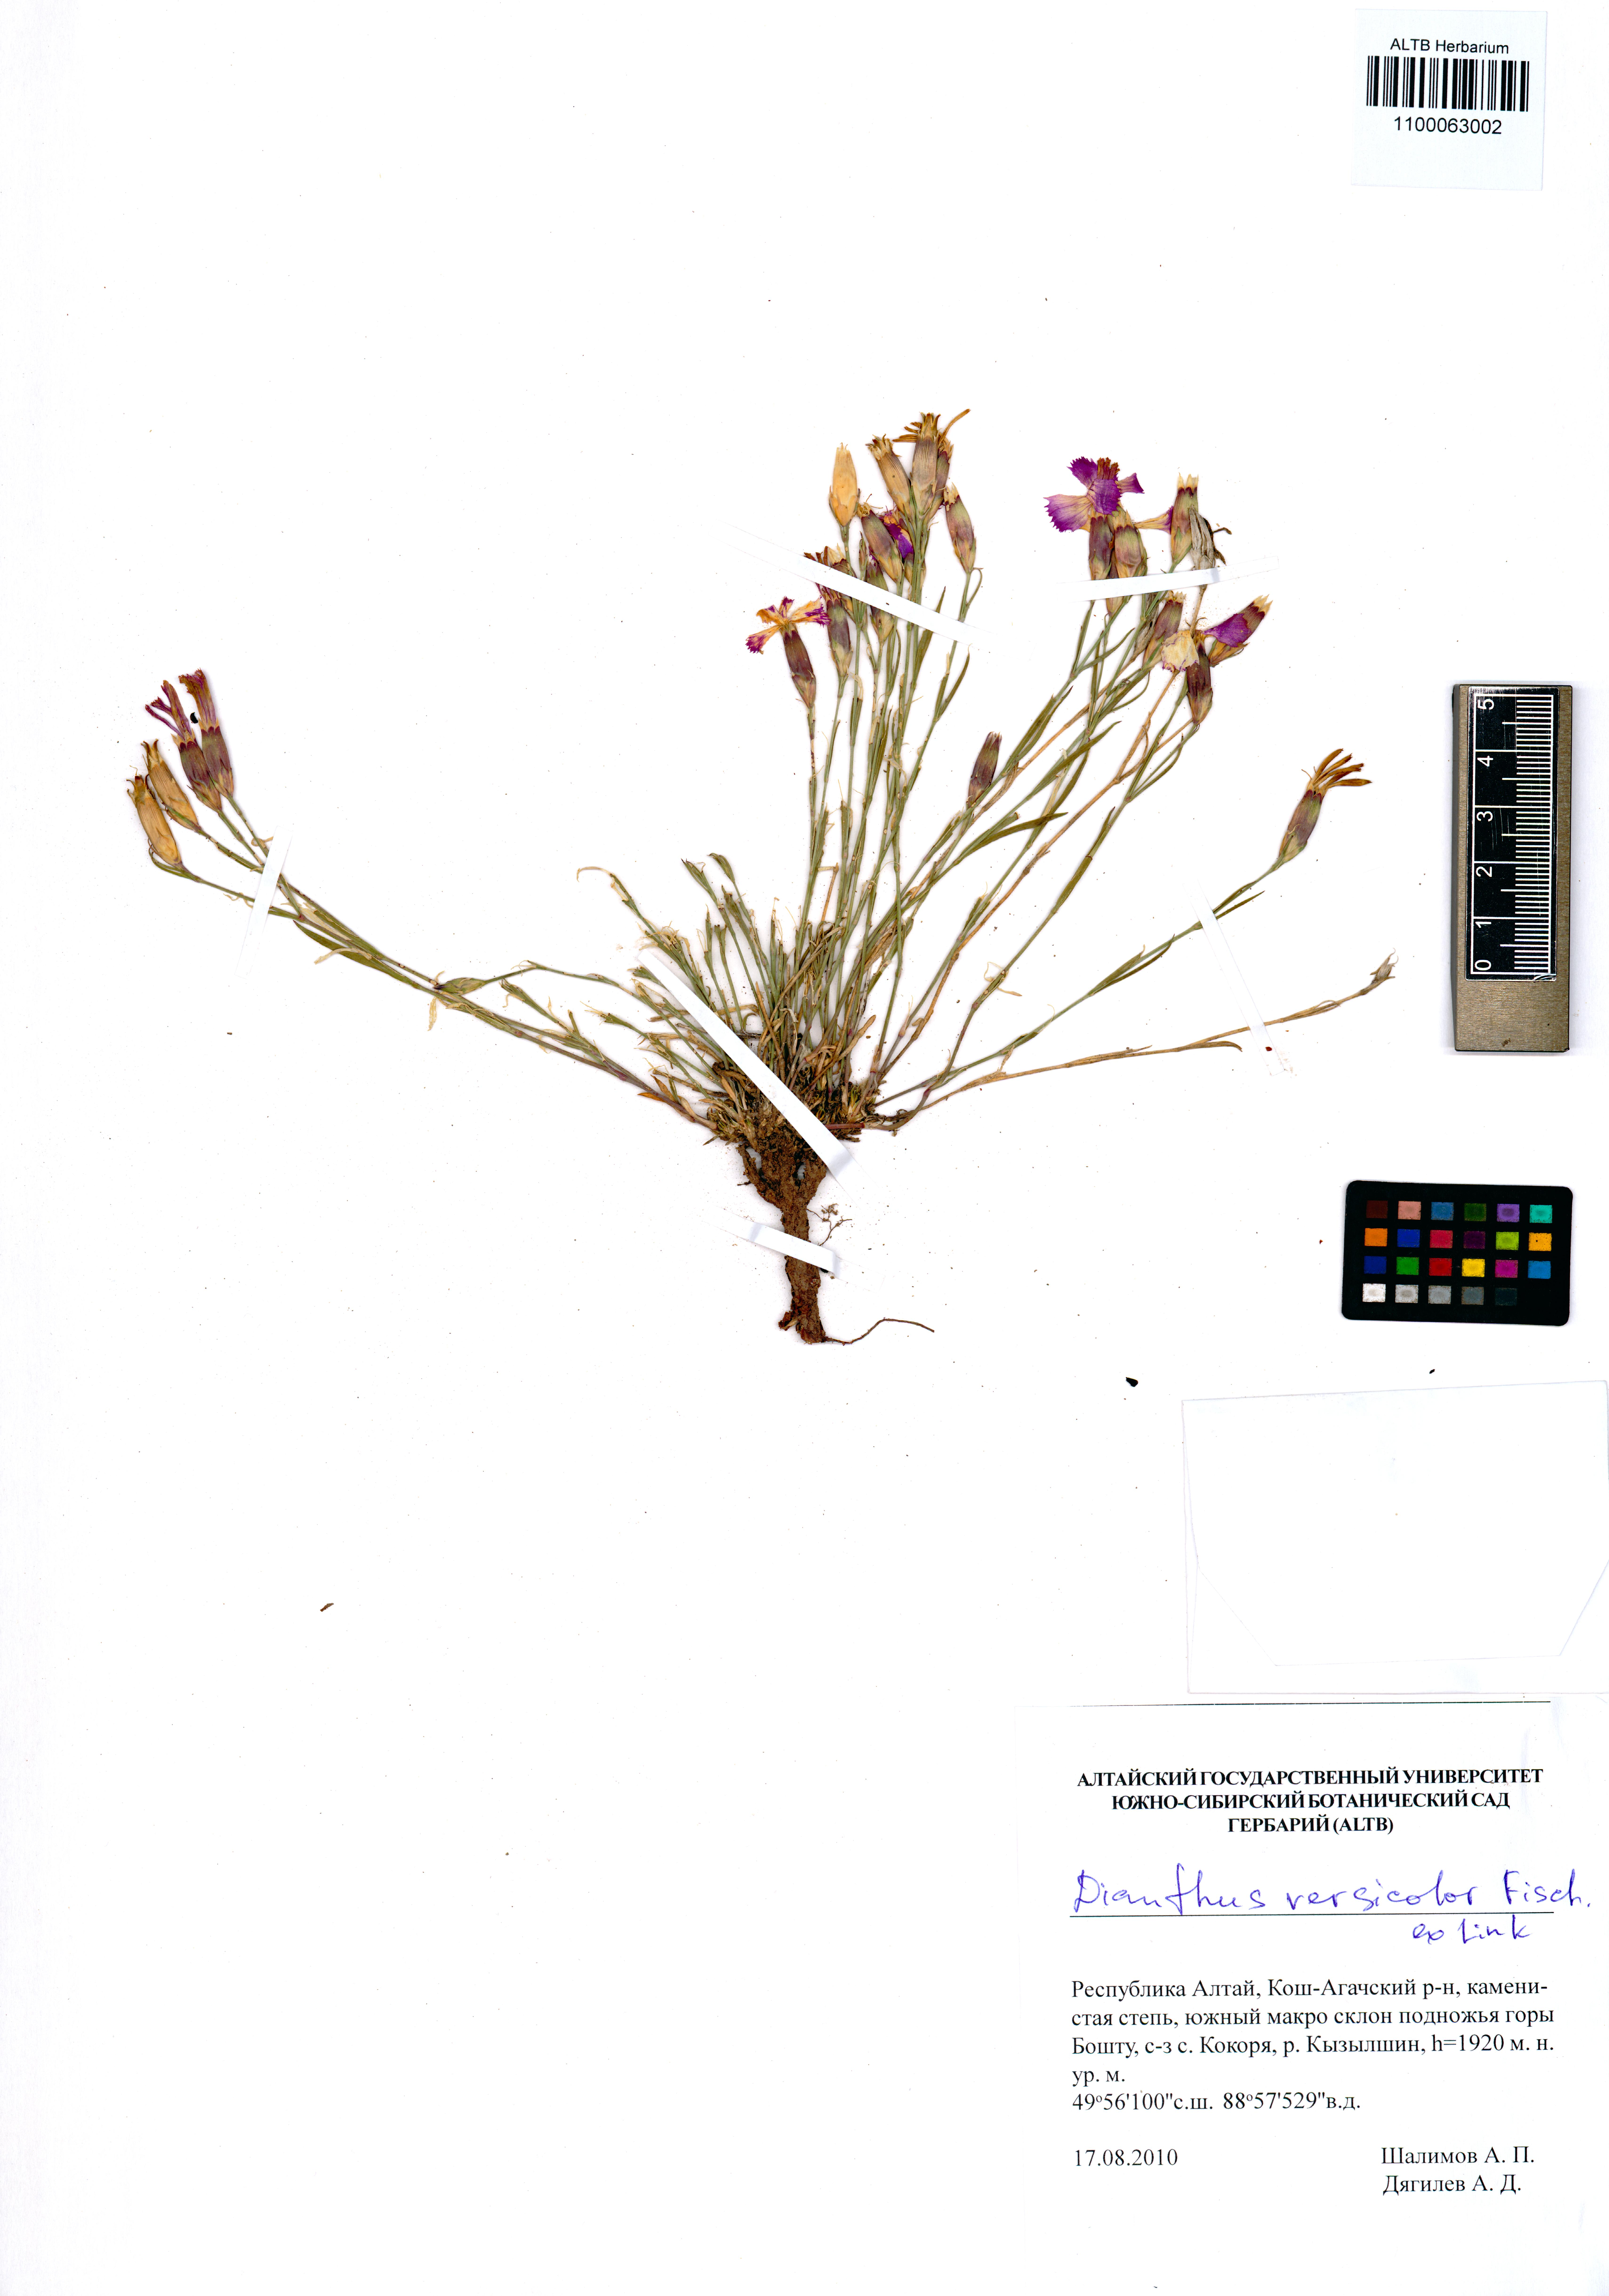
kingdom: Plantae
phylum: Tracheophyta
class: Magnoliopsida
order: Caryophyllales
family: Caryophyllaceae
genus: Dianthus
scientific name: Dianthus chinensis
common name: Rainbow pink
